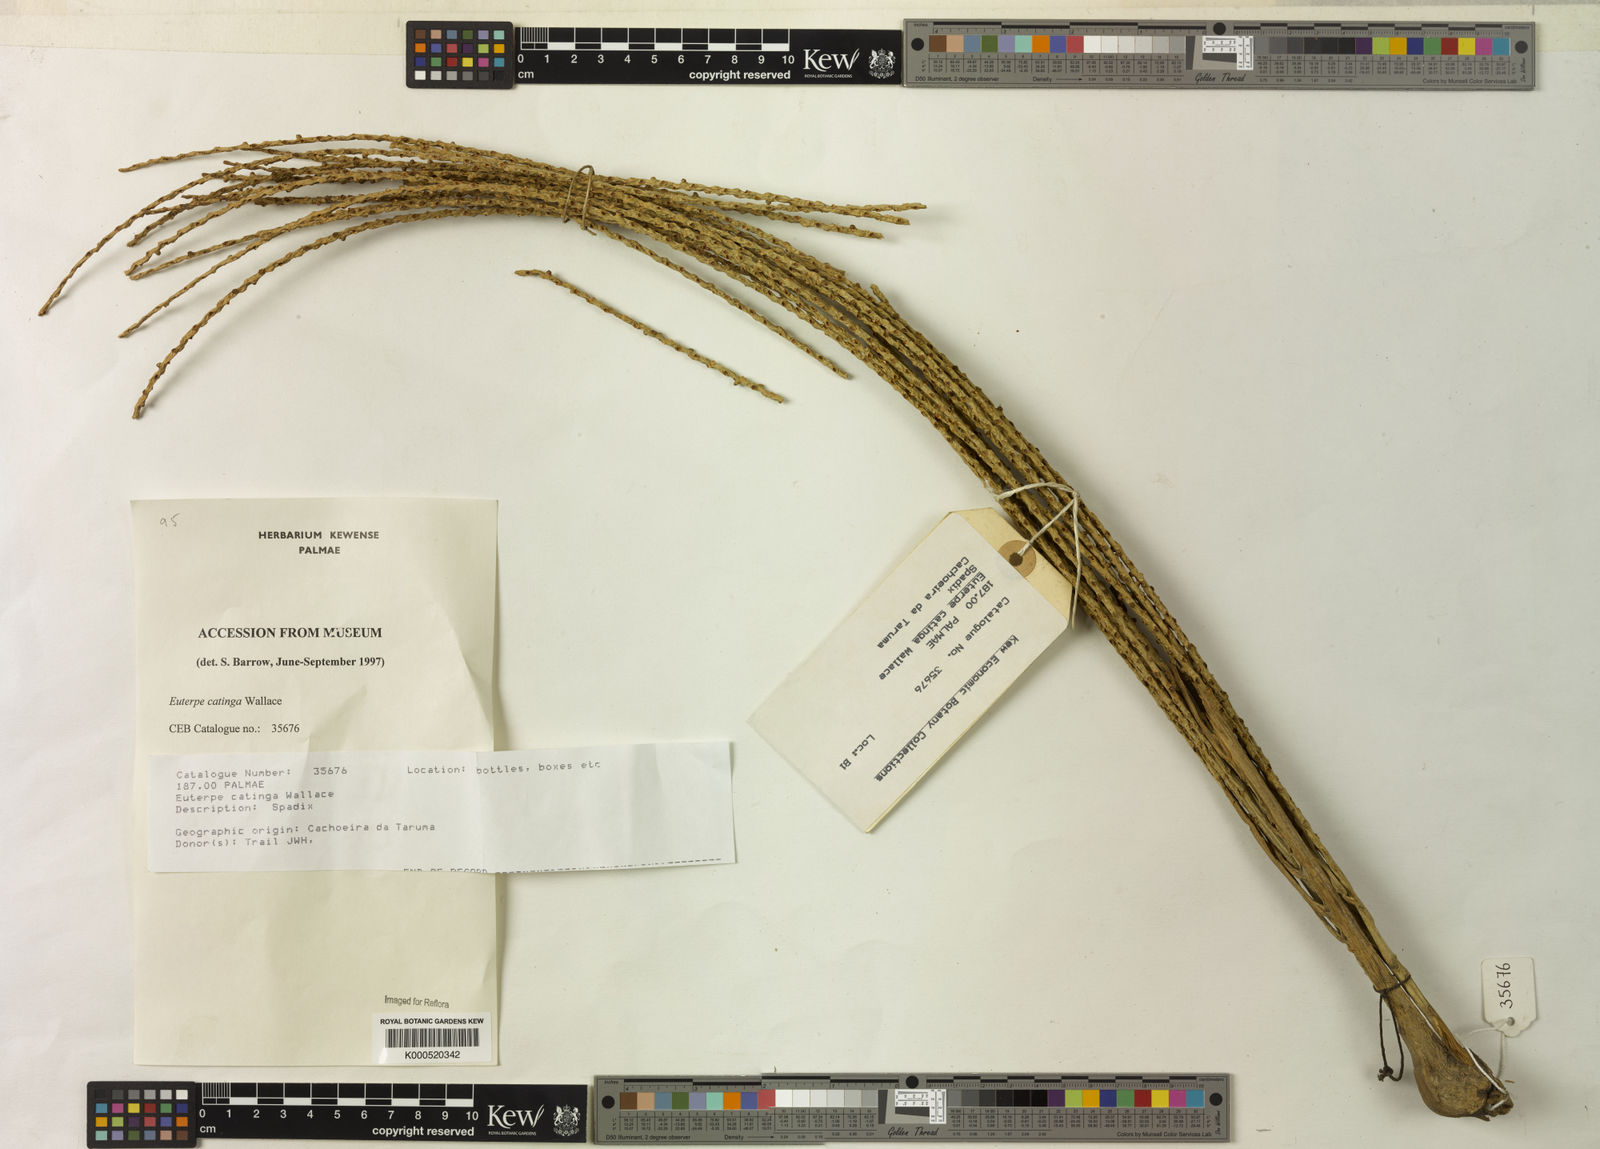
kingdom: Plantae
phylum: Tracheophyta
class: Liliopsida
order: Arecales
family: Arecaceae
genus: Euterpe
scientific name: Euterpe catinga
